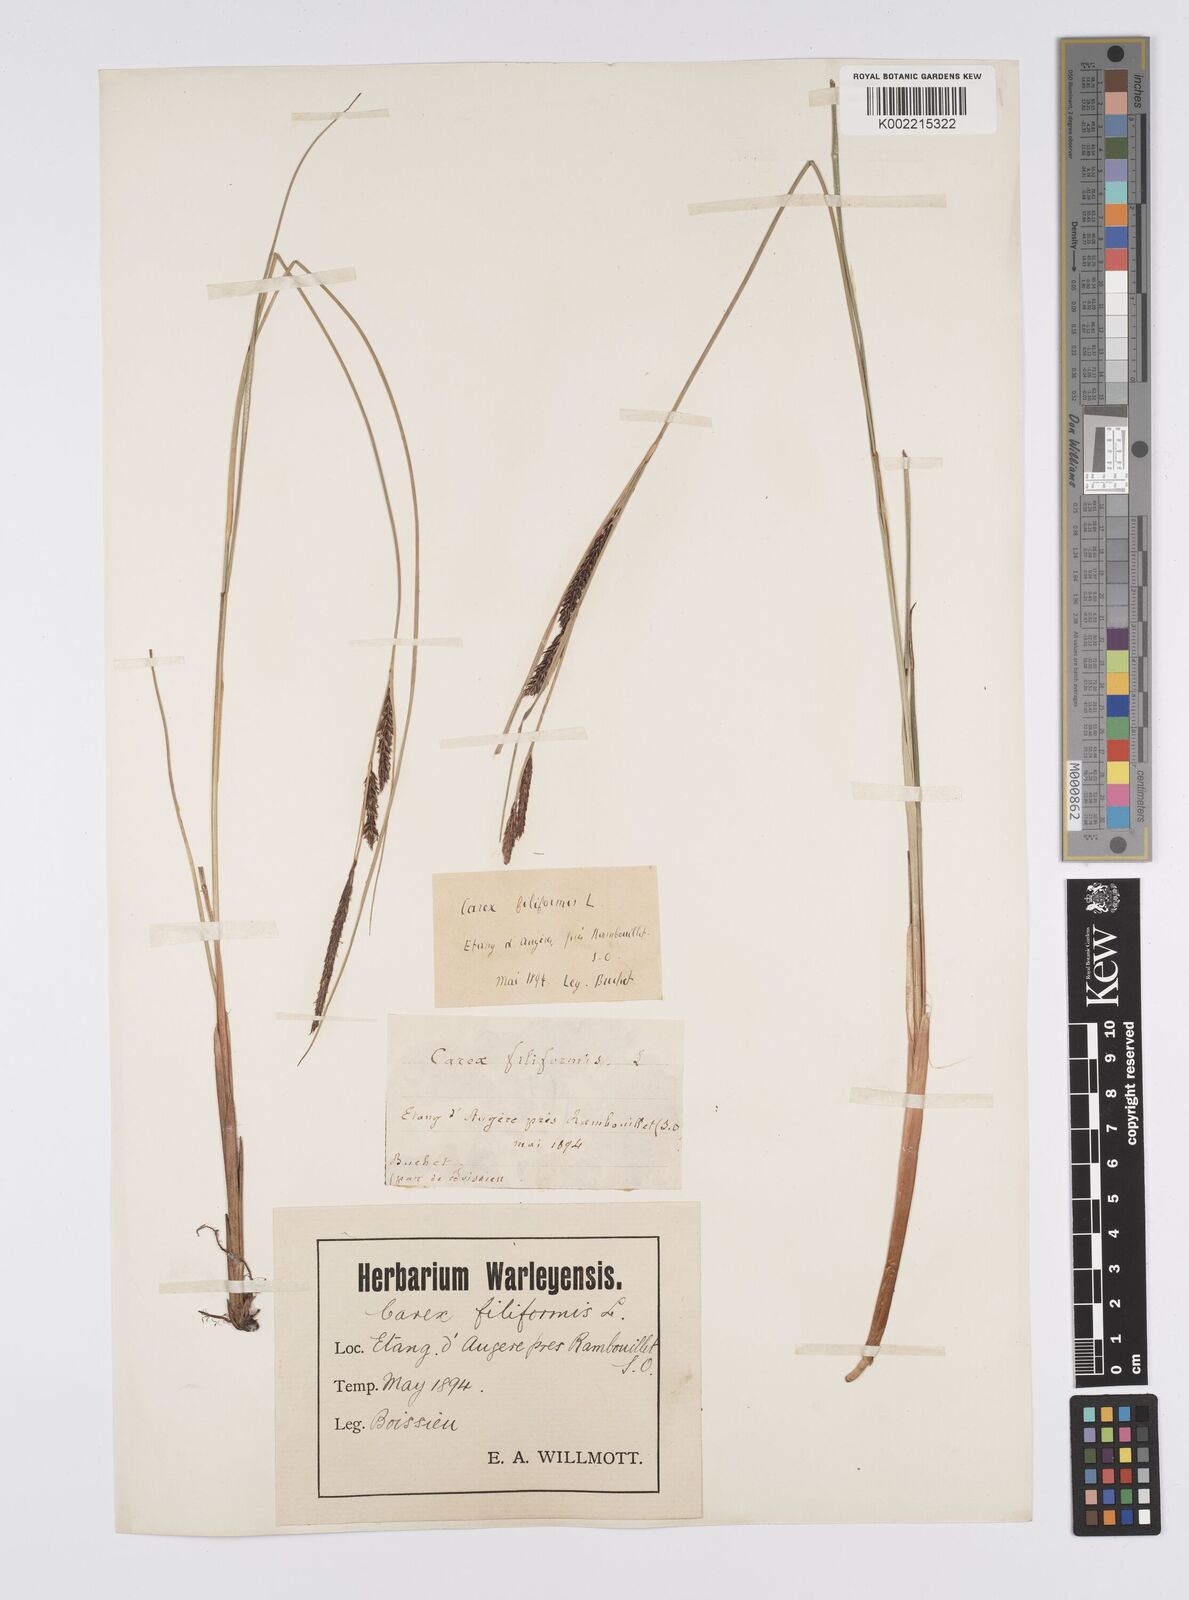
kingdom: Plantae
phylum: Tracheophyta
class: Liliopsida
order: Poales
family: Cyperaceae
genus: Carex
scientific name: Carex lasiocarpa
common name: Slender sedge
